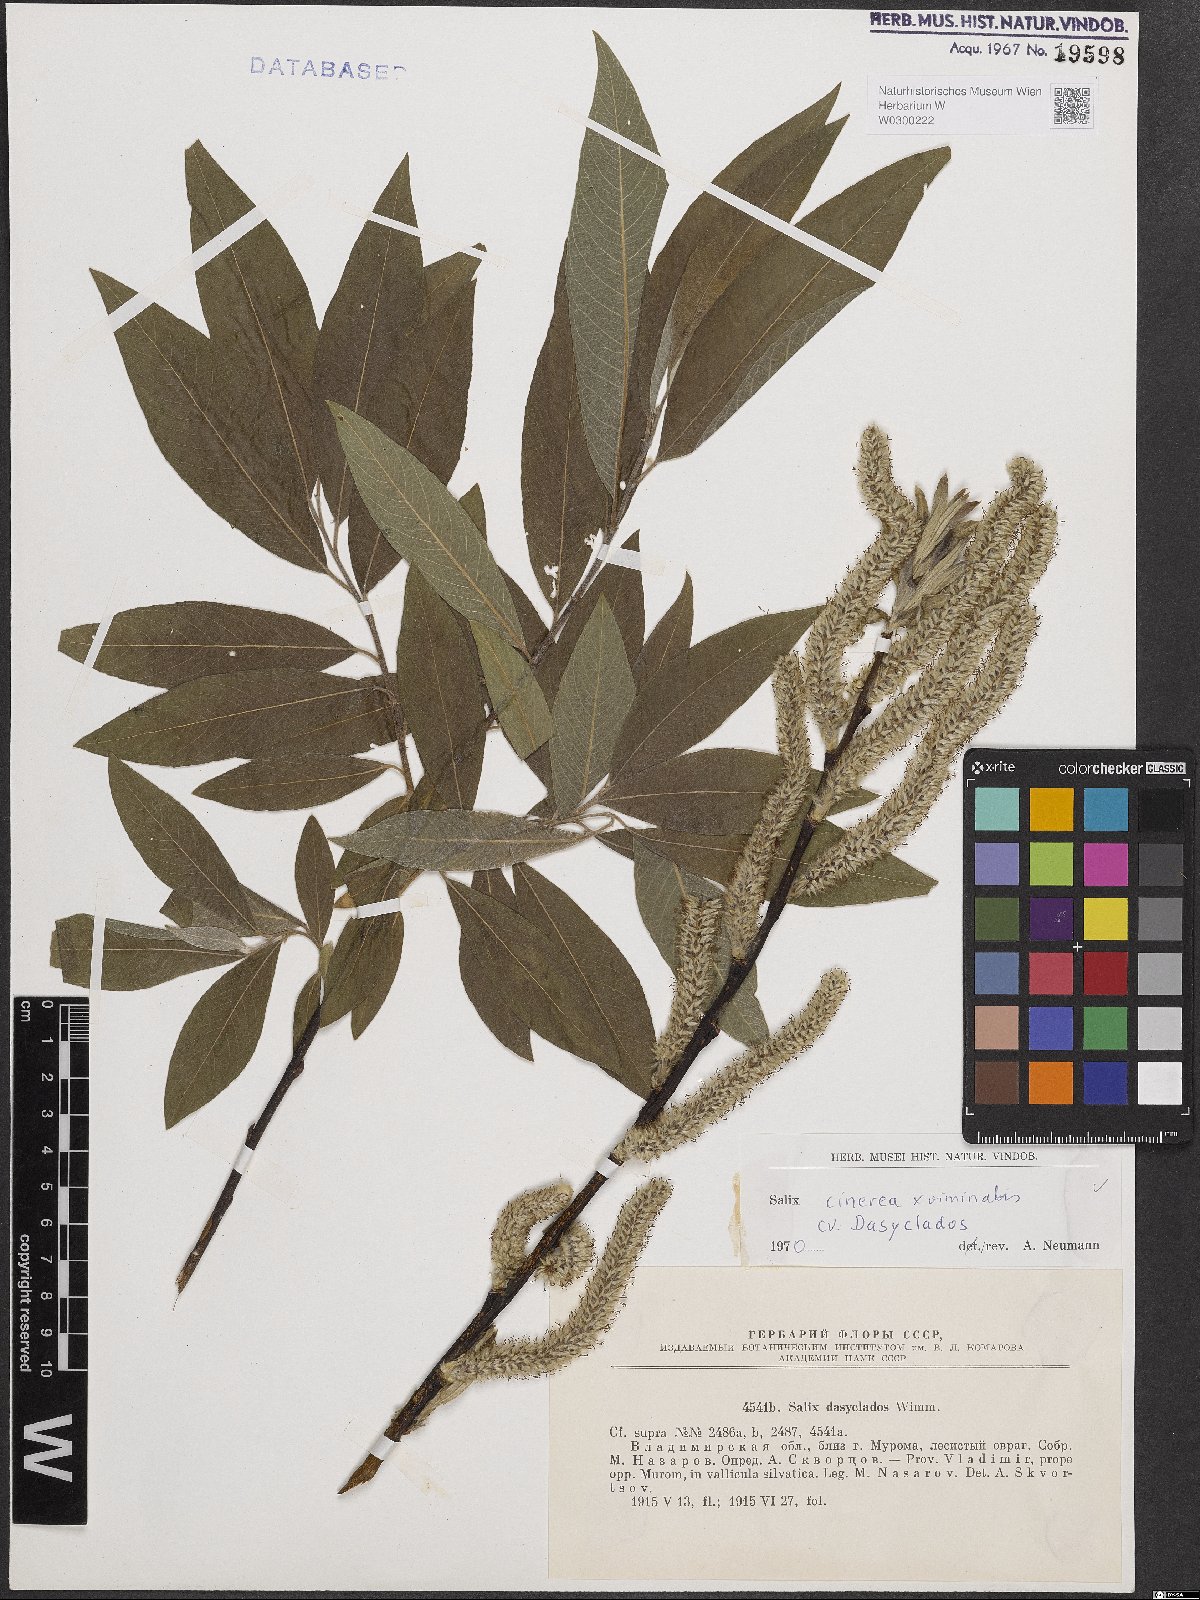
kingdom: Plantae
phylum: Tracheophyta
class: Magnoliopsida
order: Malpighiales
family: Salicaceae
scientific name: Salicaceae
